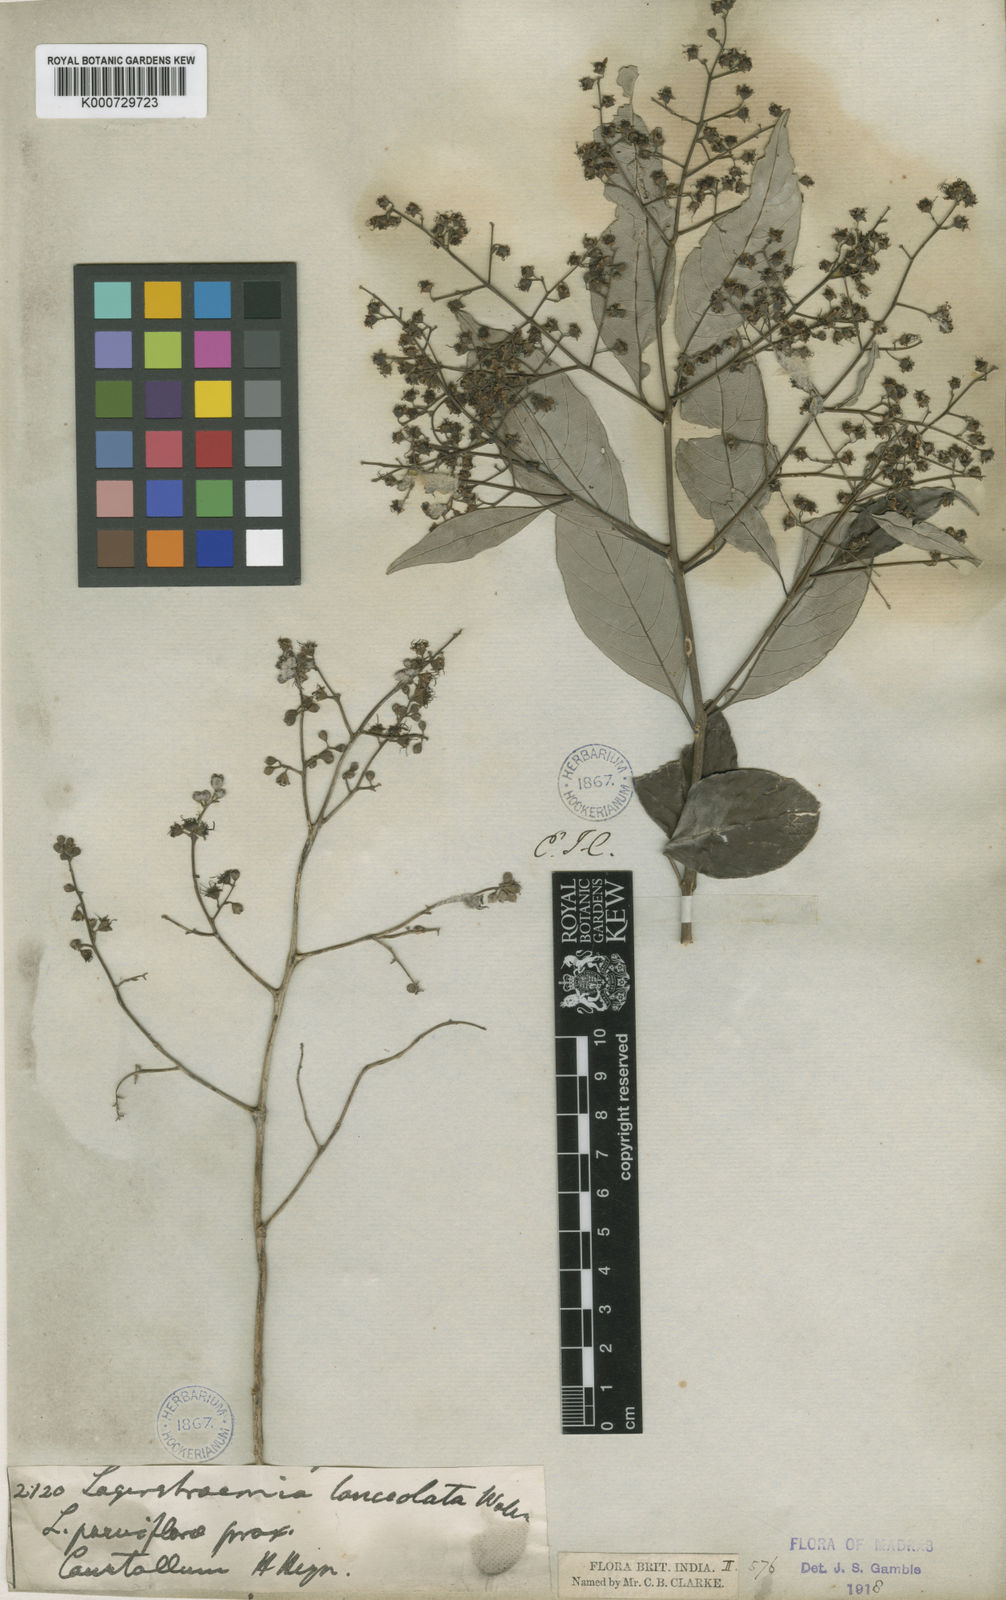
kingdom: Plantae
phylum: Tracheophyta
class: Magnoliopsida
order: Myrtales
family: Lythraceae
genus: Lagerstroemia
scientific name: Lagerstroemia subcostata
